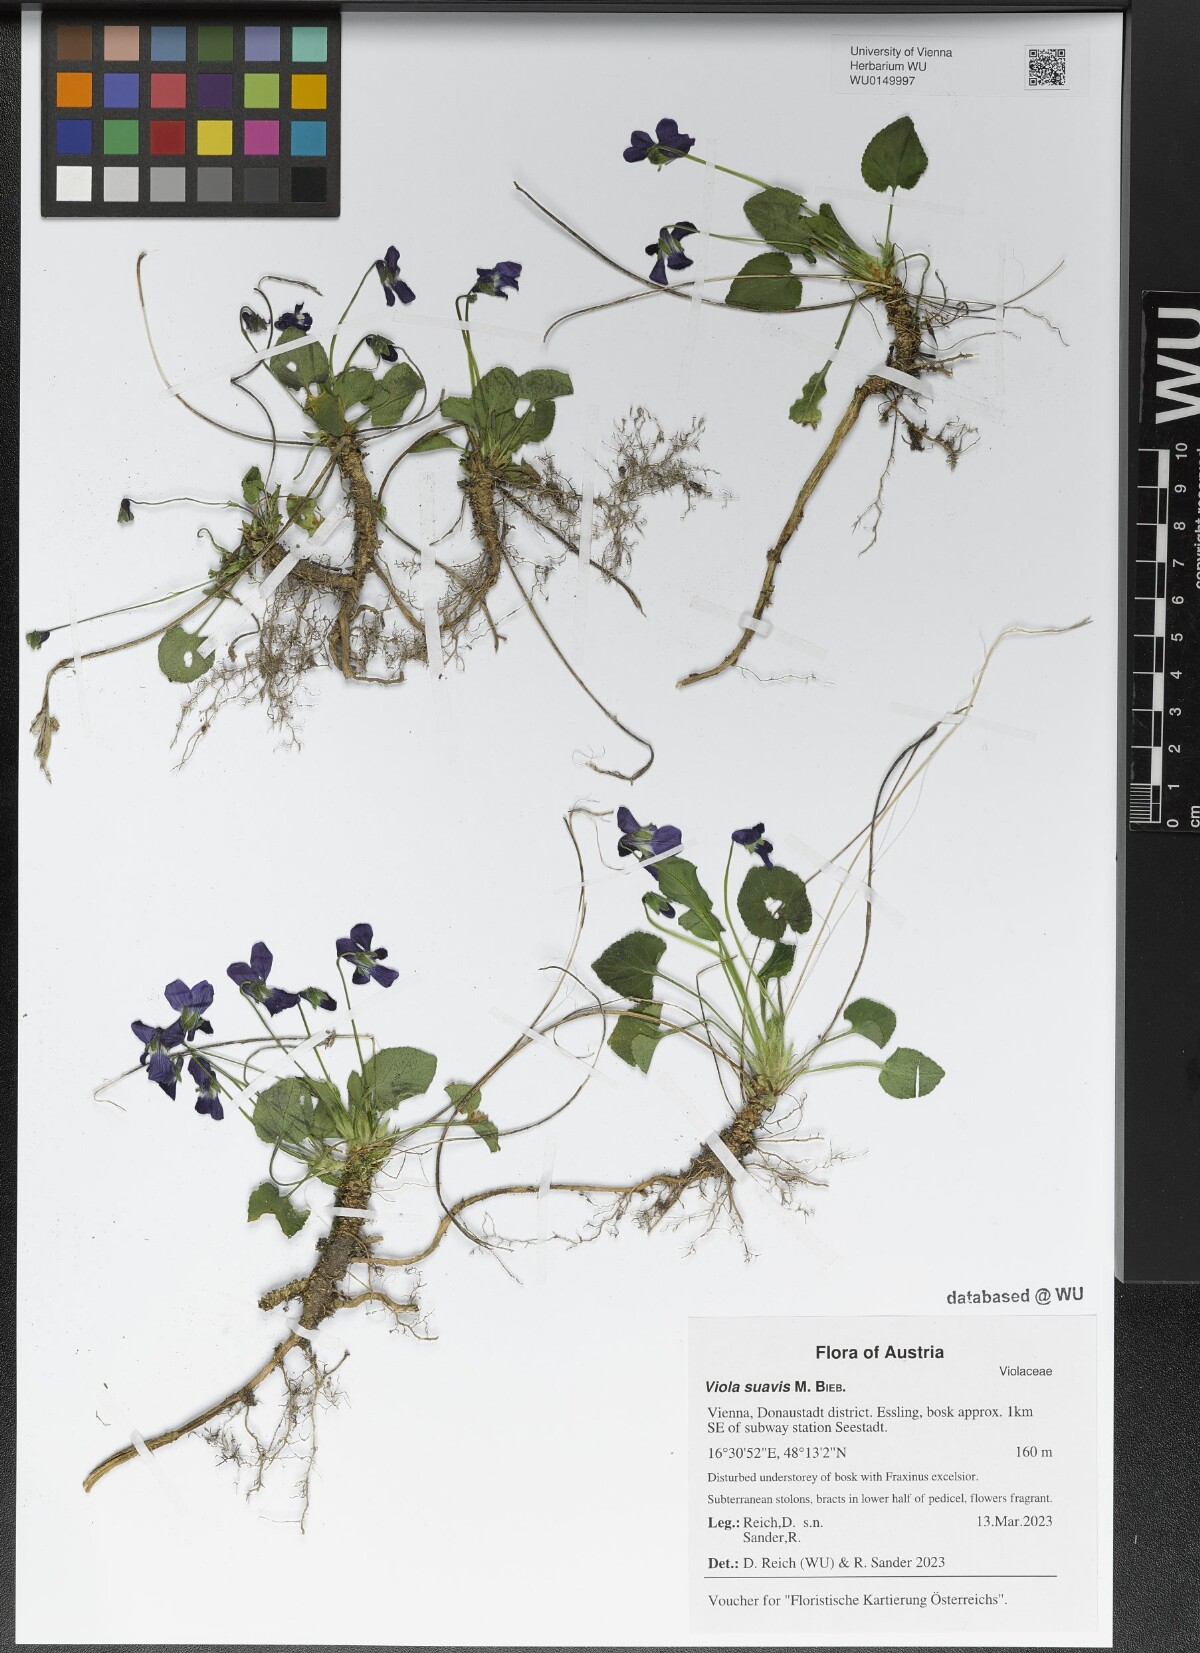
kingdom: Plantae
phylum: Tracheophyta
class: Magnoliopsida
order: Malpighiales
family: Violaceae
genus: Viola
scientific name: Viola suavis
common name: Russian violet
